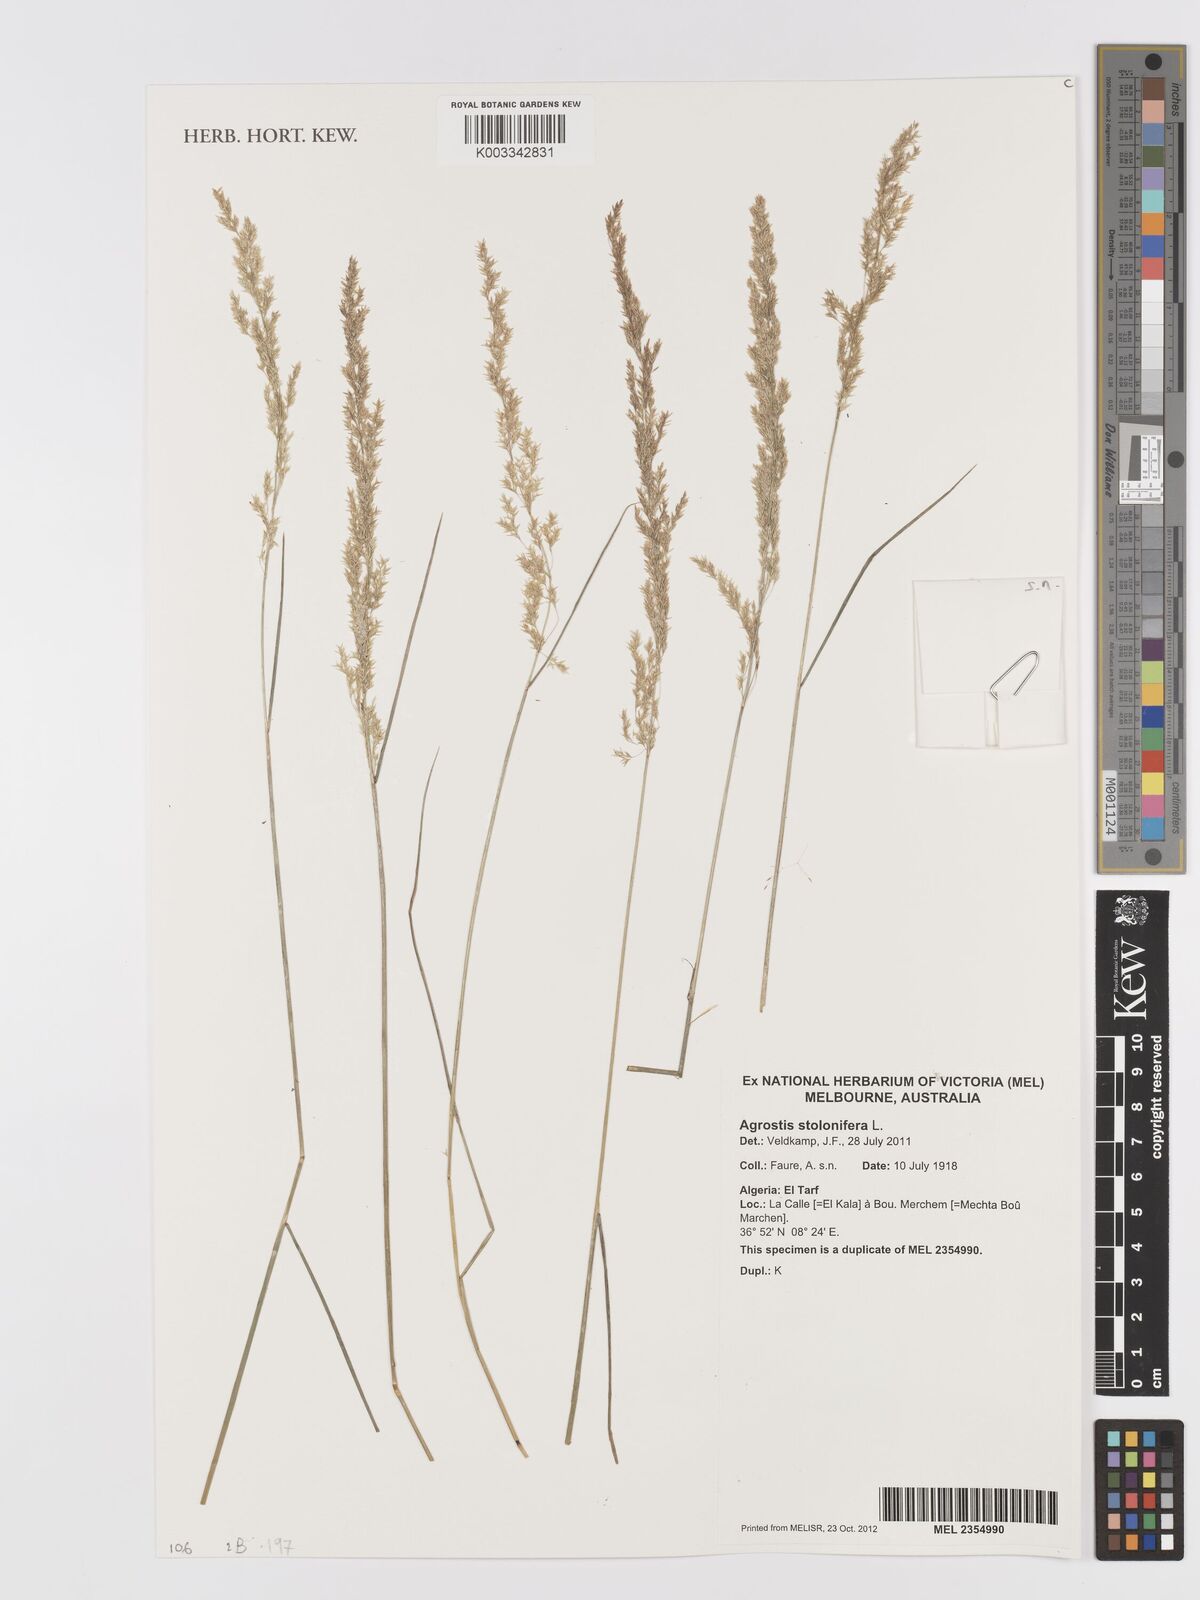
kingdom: Plantae
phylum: Tracheophyta
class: Liliopsida
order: Poales
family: Poaceae
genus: Agrostis
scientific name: Agrostis stolonifera
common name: Creeping bentgrass
